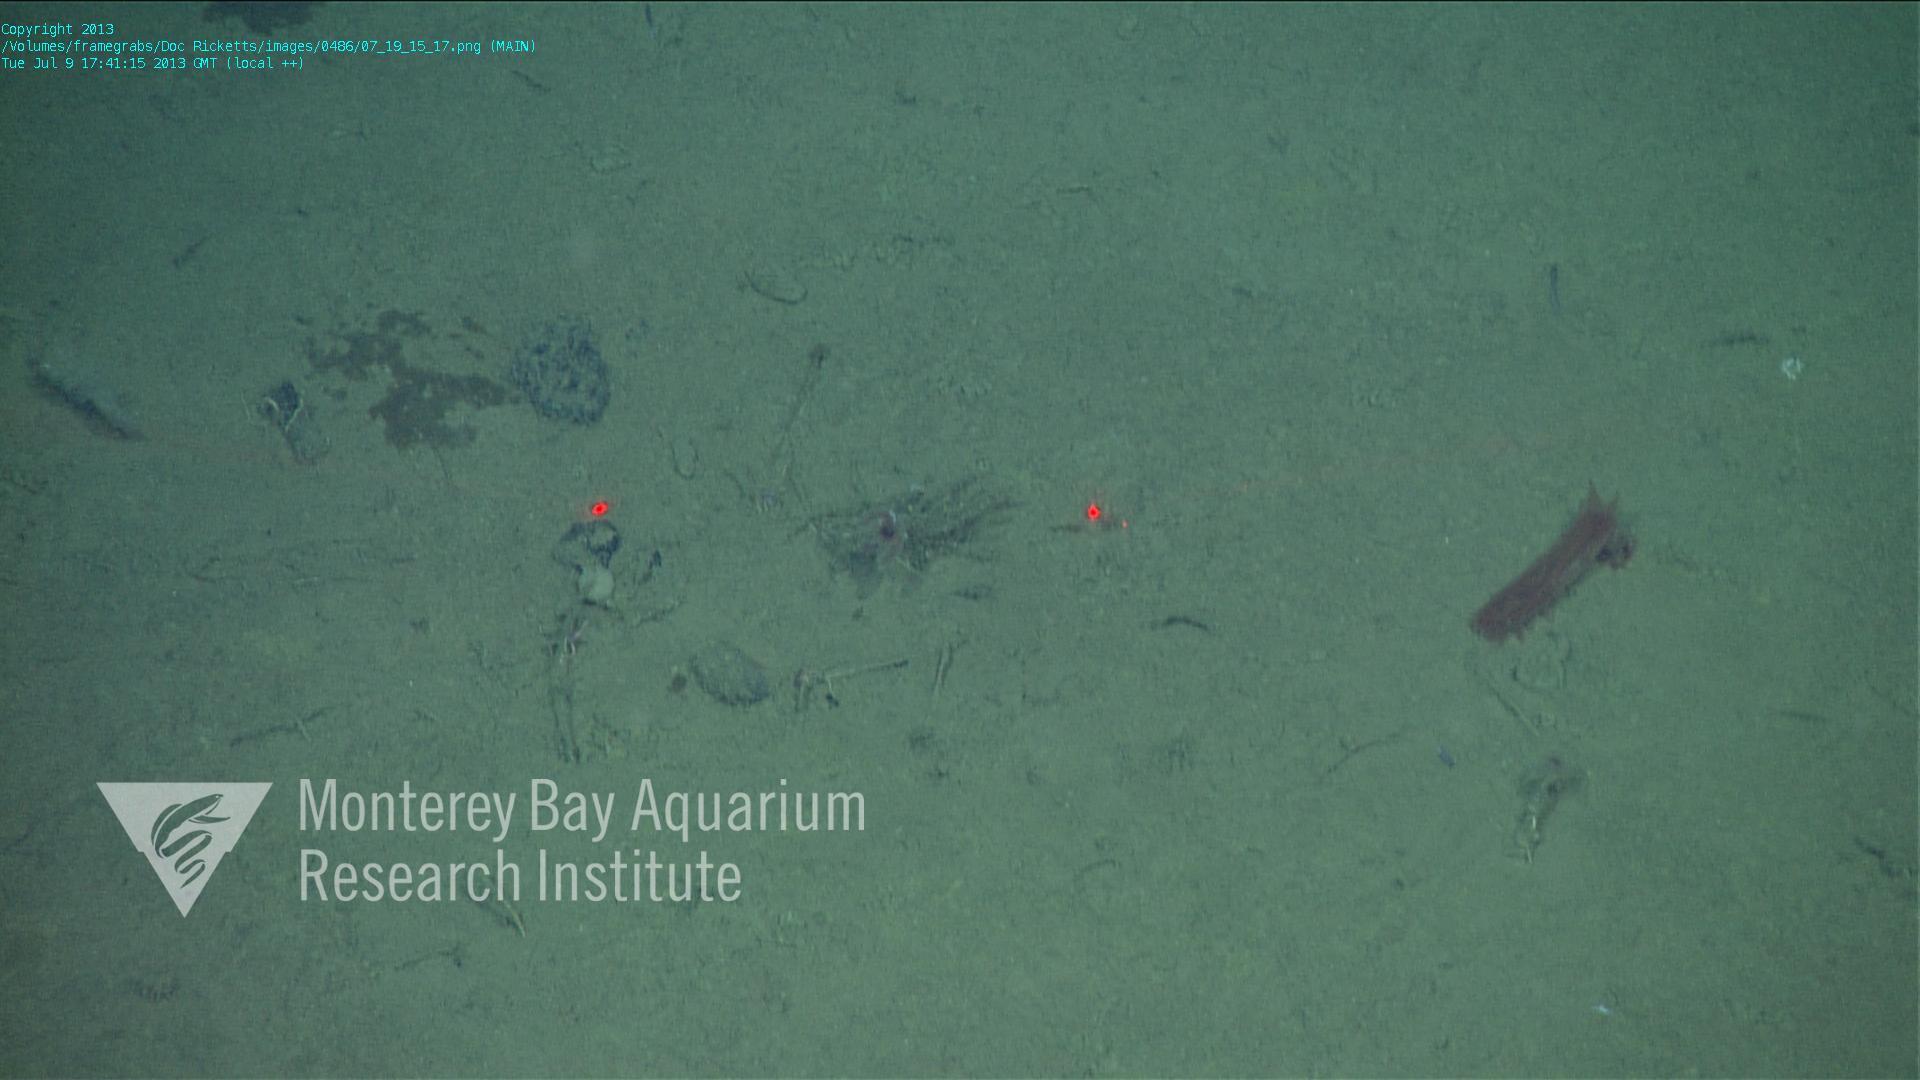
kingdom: Animalia
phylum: Porifera
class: Hexactinellida
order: Lyssacinosida
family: Rossellidae
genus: Bathydorus
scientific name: Bathydorus spinosus
